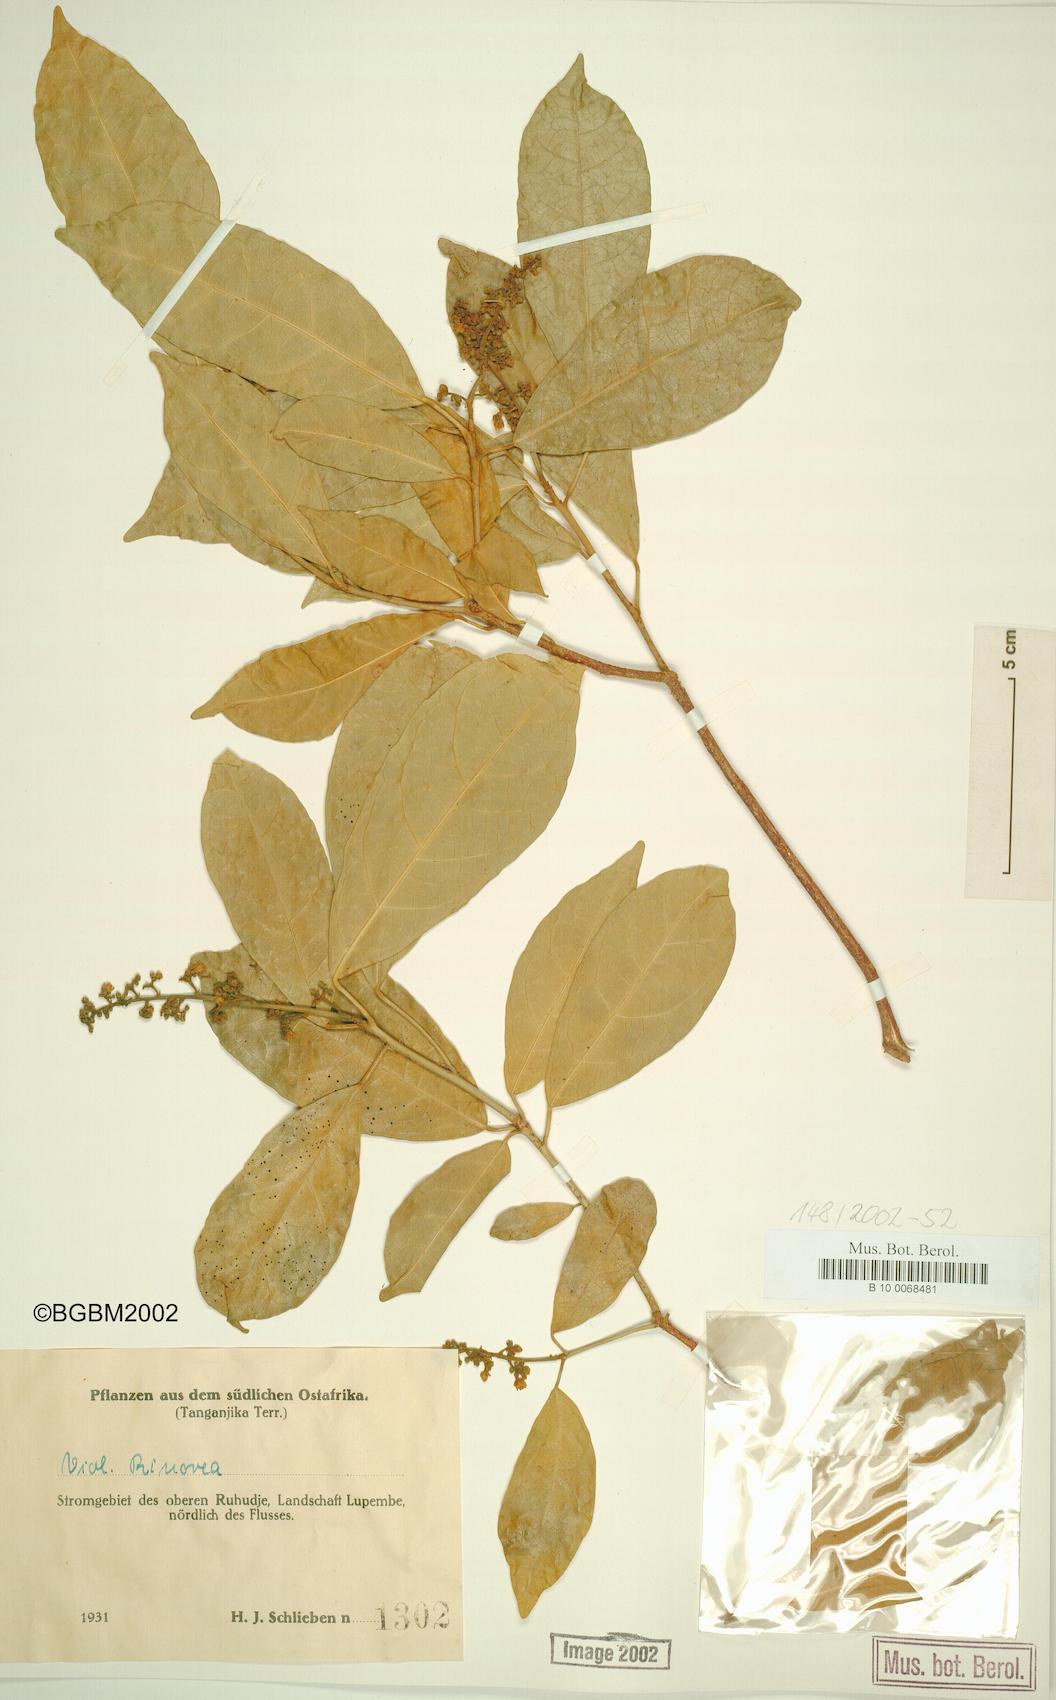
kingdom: Plantae
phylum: Tracheophyta
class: Magnoliopsida
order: Malpighiales
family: Violaceae
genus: Rinorea
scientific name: Rinorea
